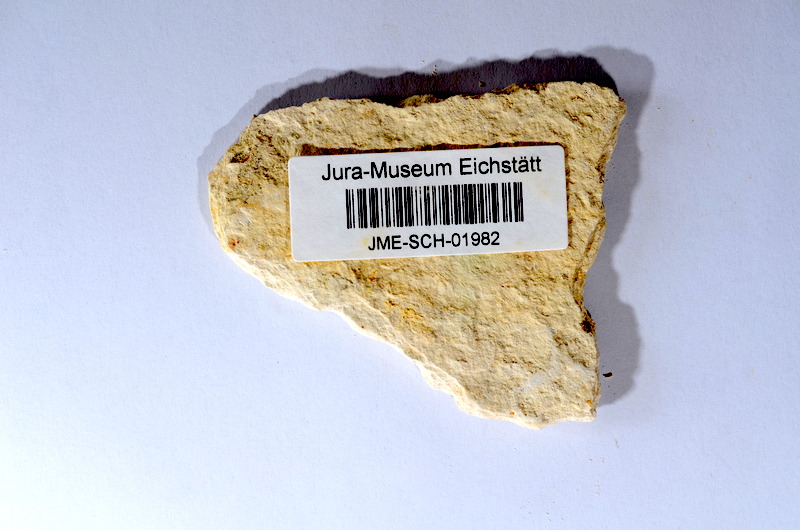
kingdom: Animalia
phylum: Chordata
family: Ascalaboidae
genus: Tharsis
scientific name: Tharsis dubius
